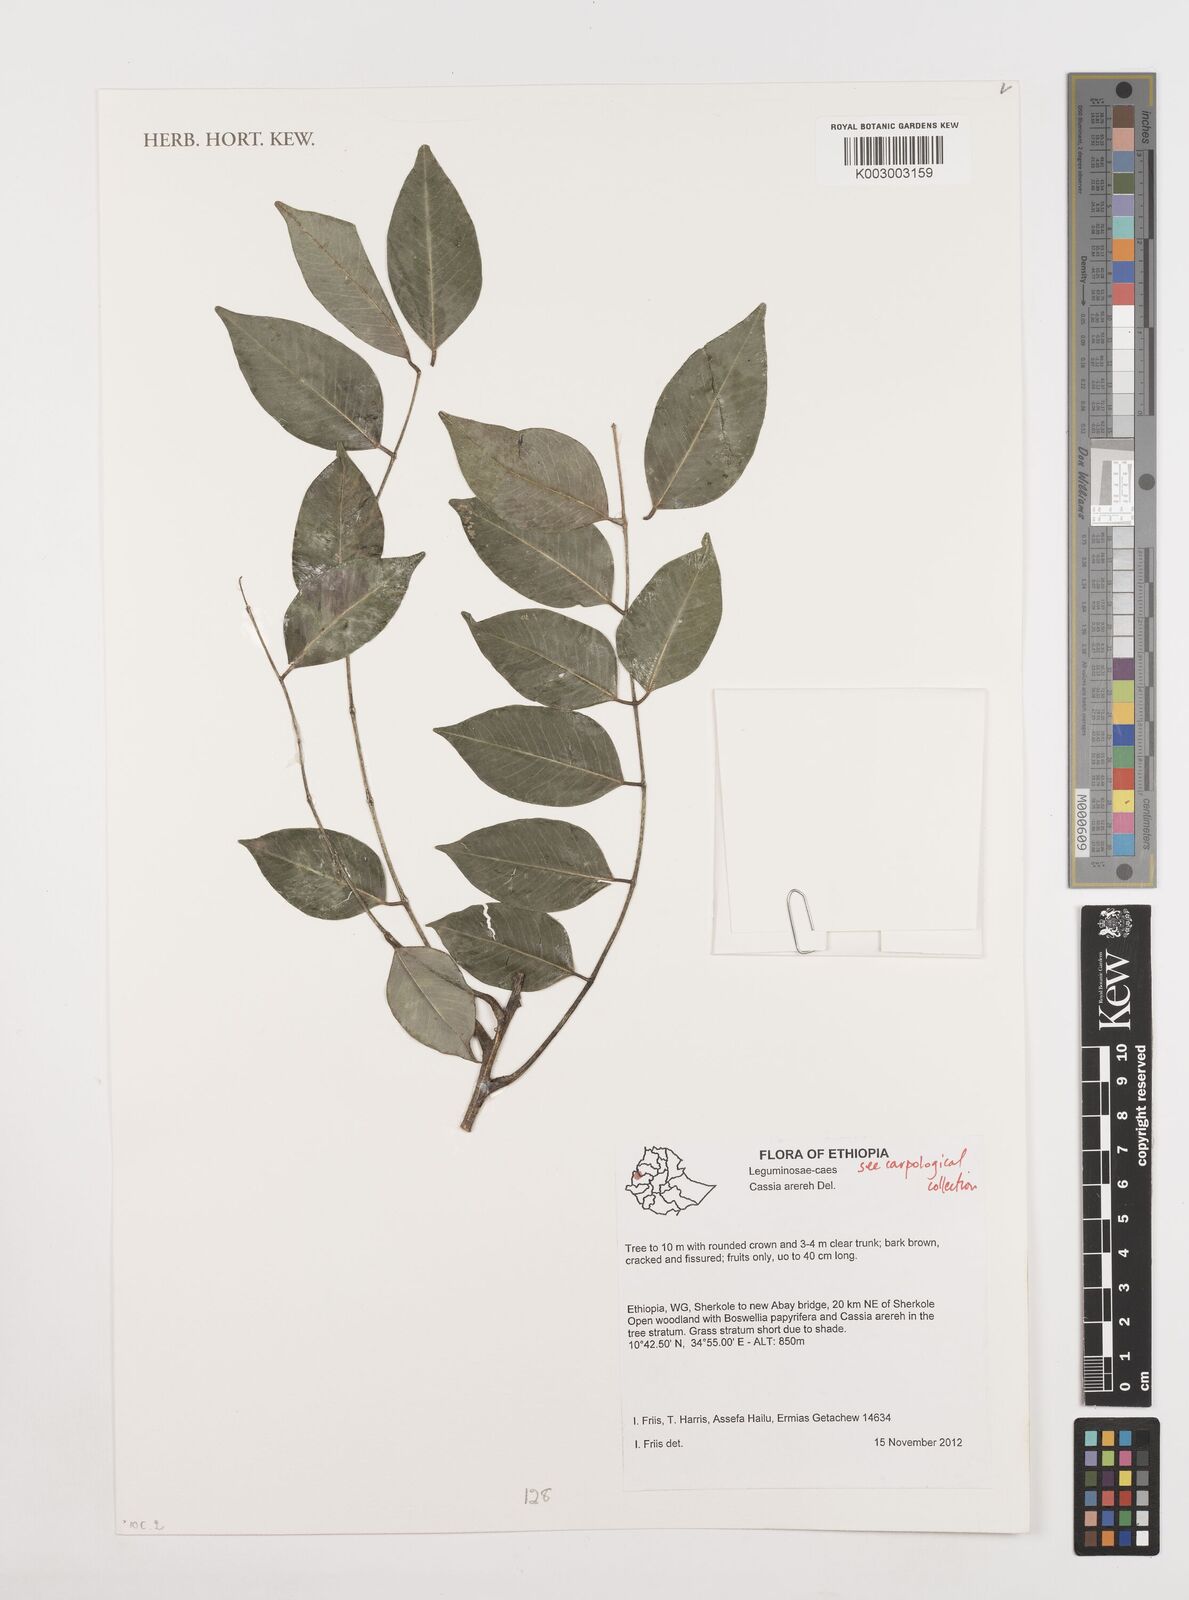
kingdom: Plantae
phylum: Tracheophyta
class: Magnoliopsida
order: Fabales
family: Fabaceae
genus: Cassia
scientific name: Cassia arereh
